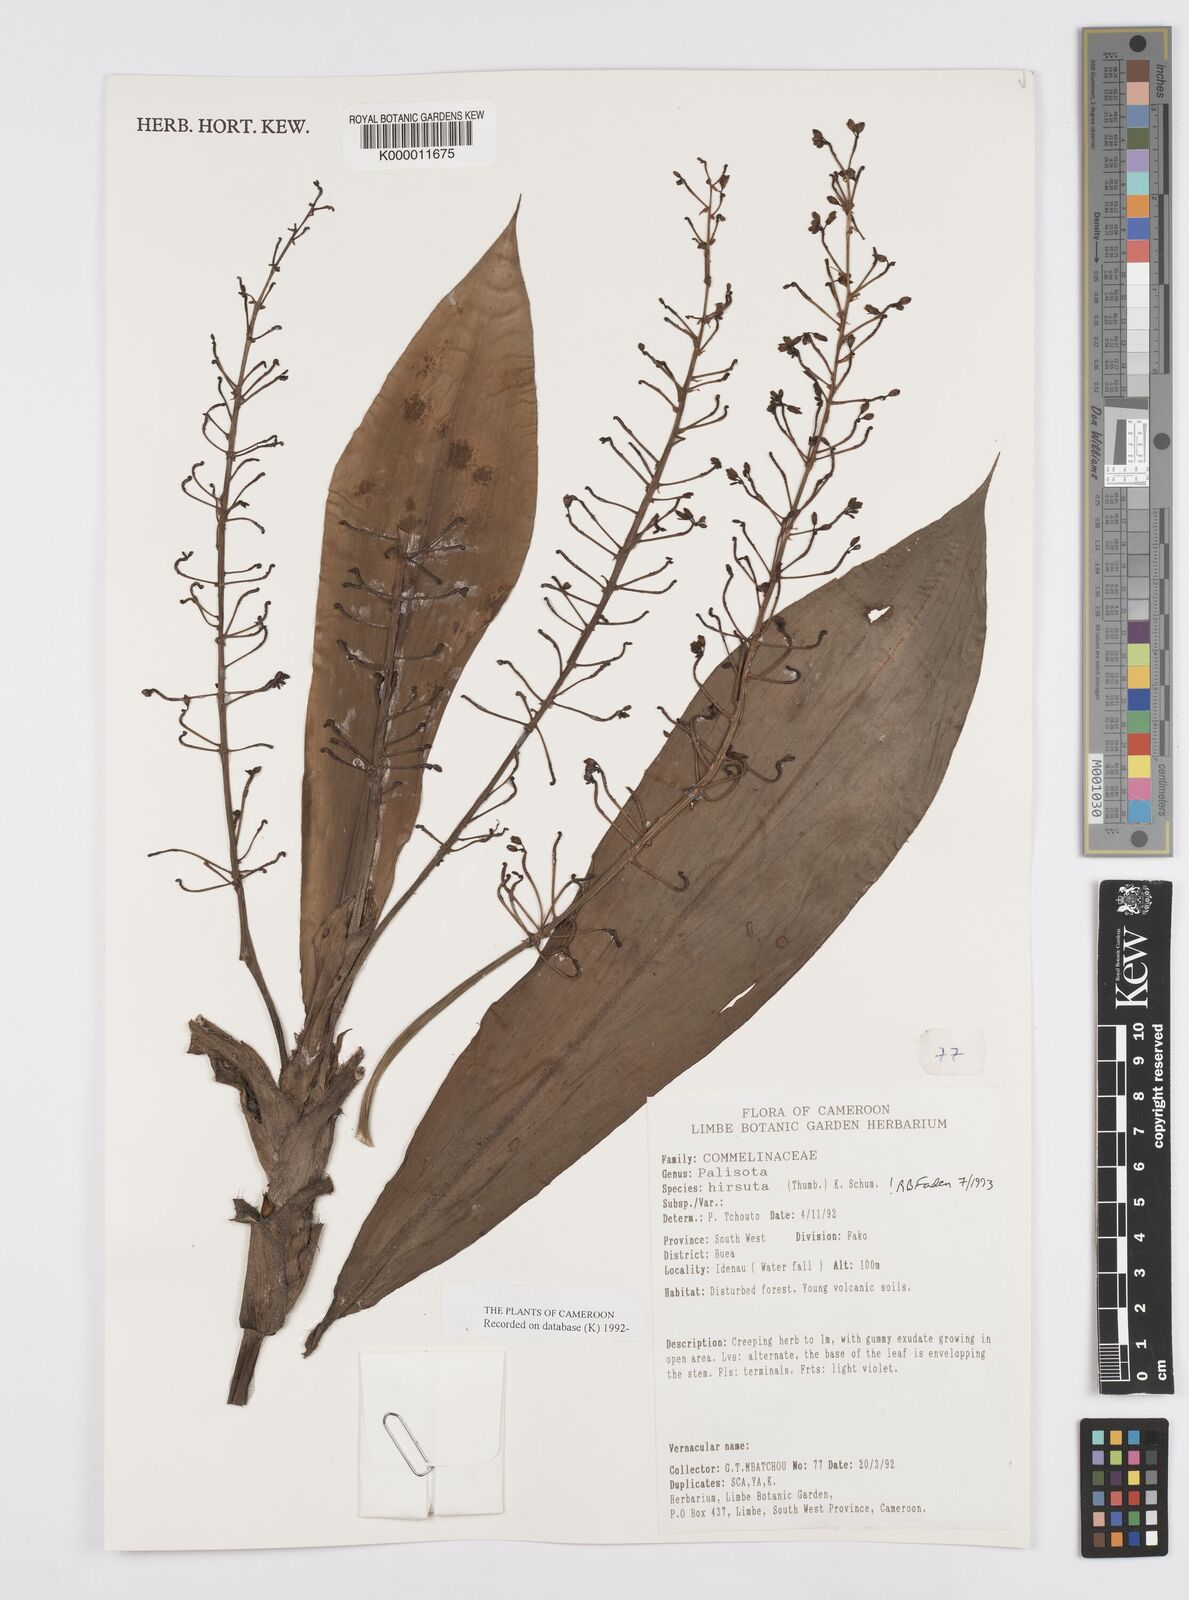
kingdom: Plantae
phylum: Tracheophyta
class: Liliopsida
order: Commelinales
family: Commelinaceae
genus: Palisota
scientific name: Palisota hirsuta
